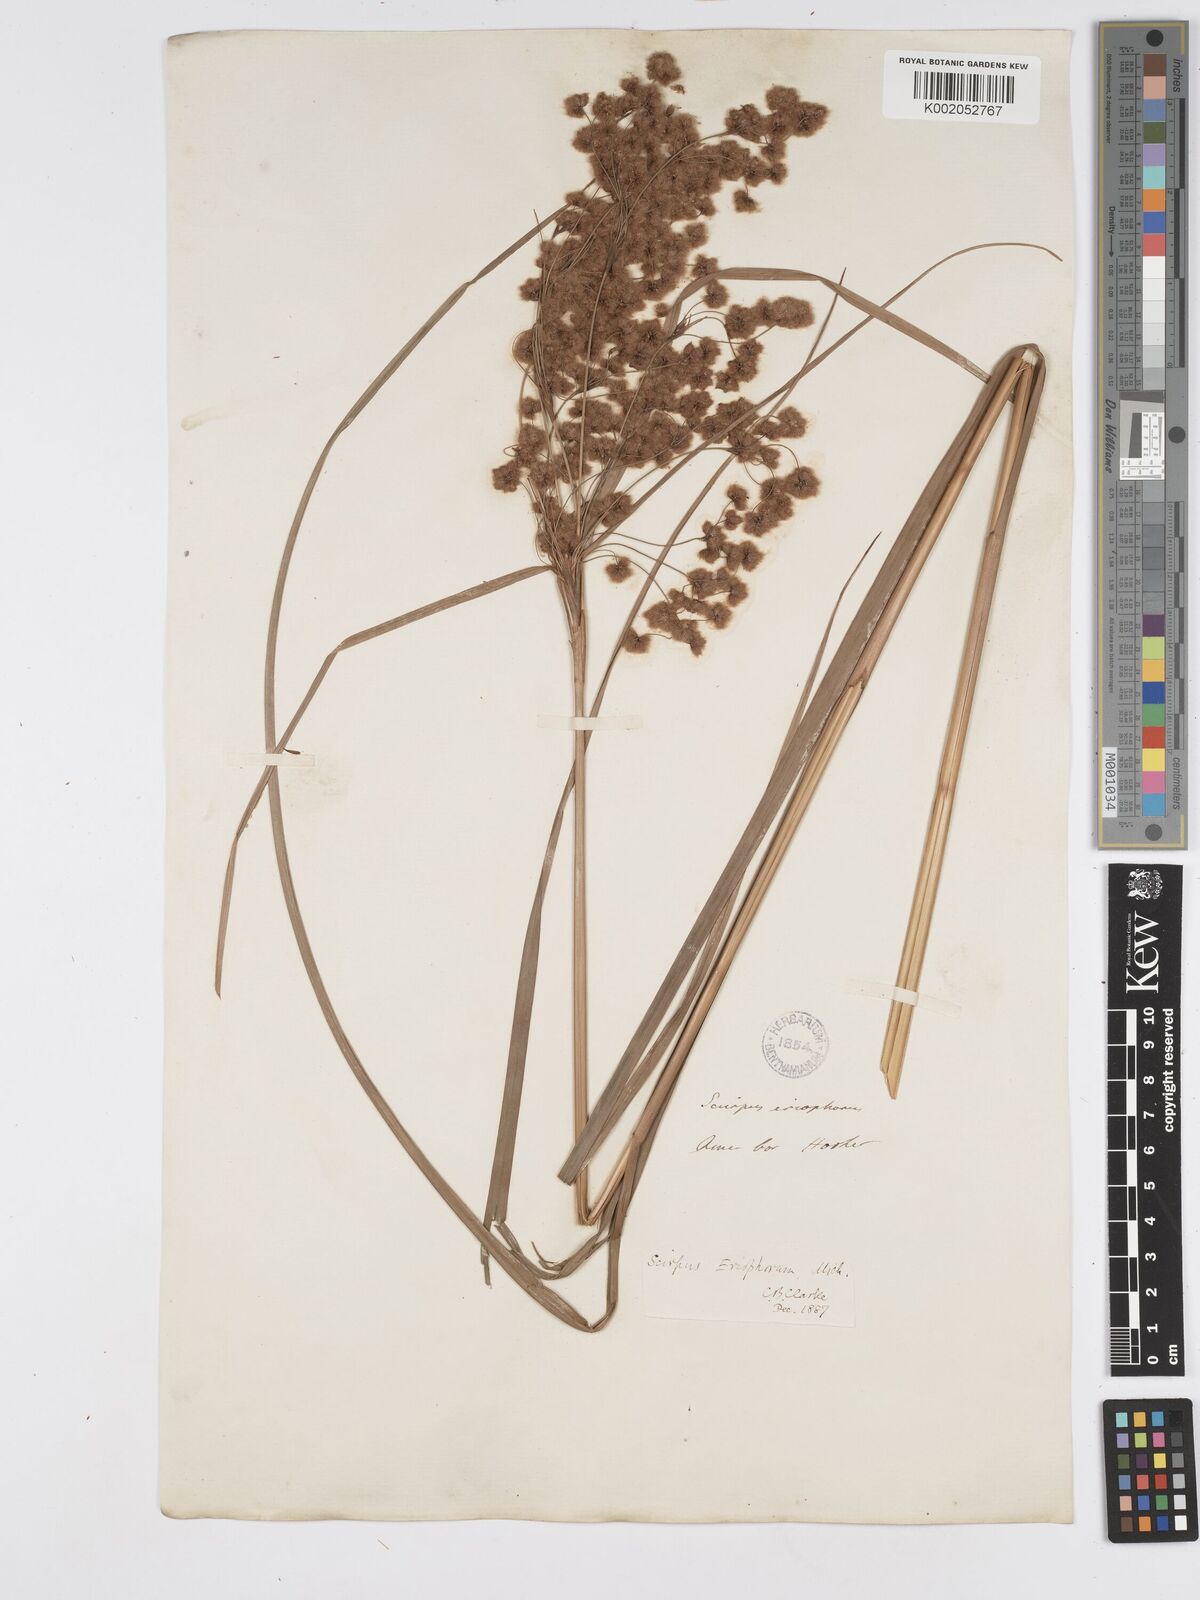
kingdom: Plantae
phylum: Tracheophyta
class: Liliopsida
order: Poales
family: Cyperaceae
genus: Scirpus
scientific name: Scirpus cyperinus
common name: Black-sheathed bulrush
